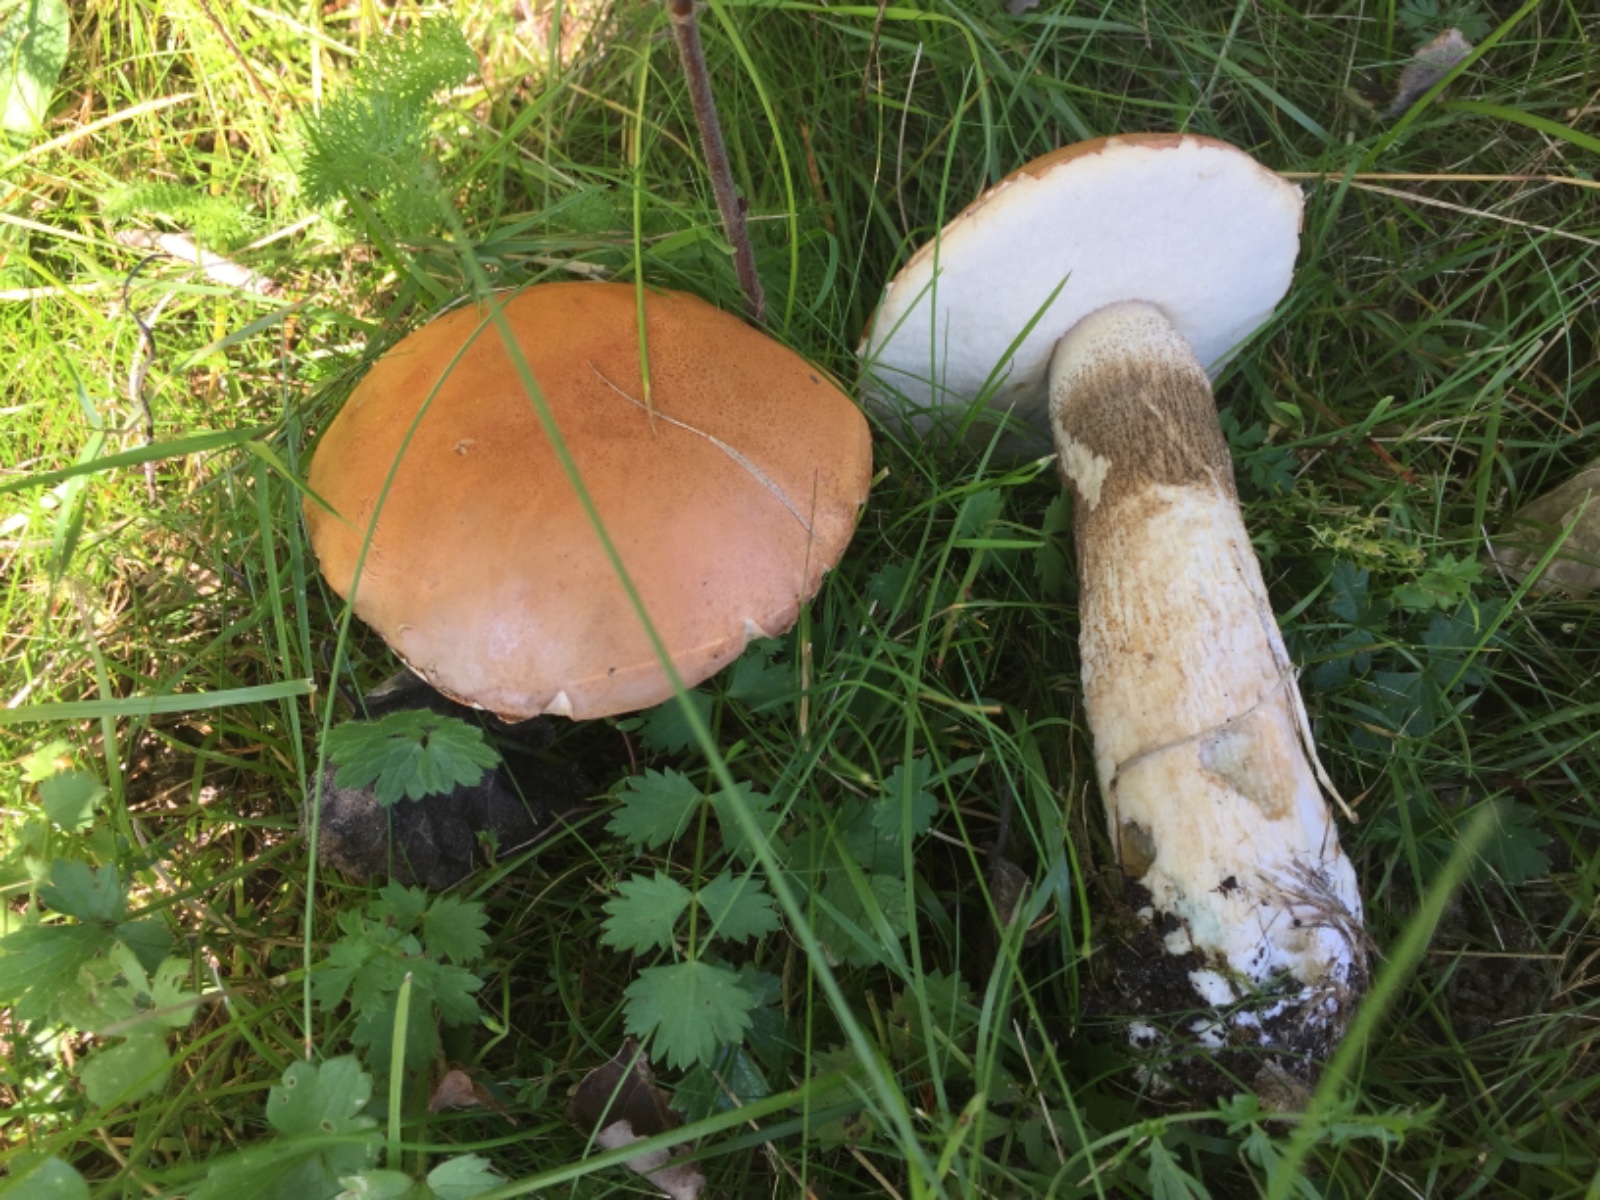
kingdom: Fungi
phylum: Basidiomycota
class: Agaricomycetes
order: Boletales
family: Boletaceae
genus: Leccinum
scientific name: Leccinum albostipitatum
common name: aspe-skælrørhat
